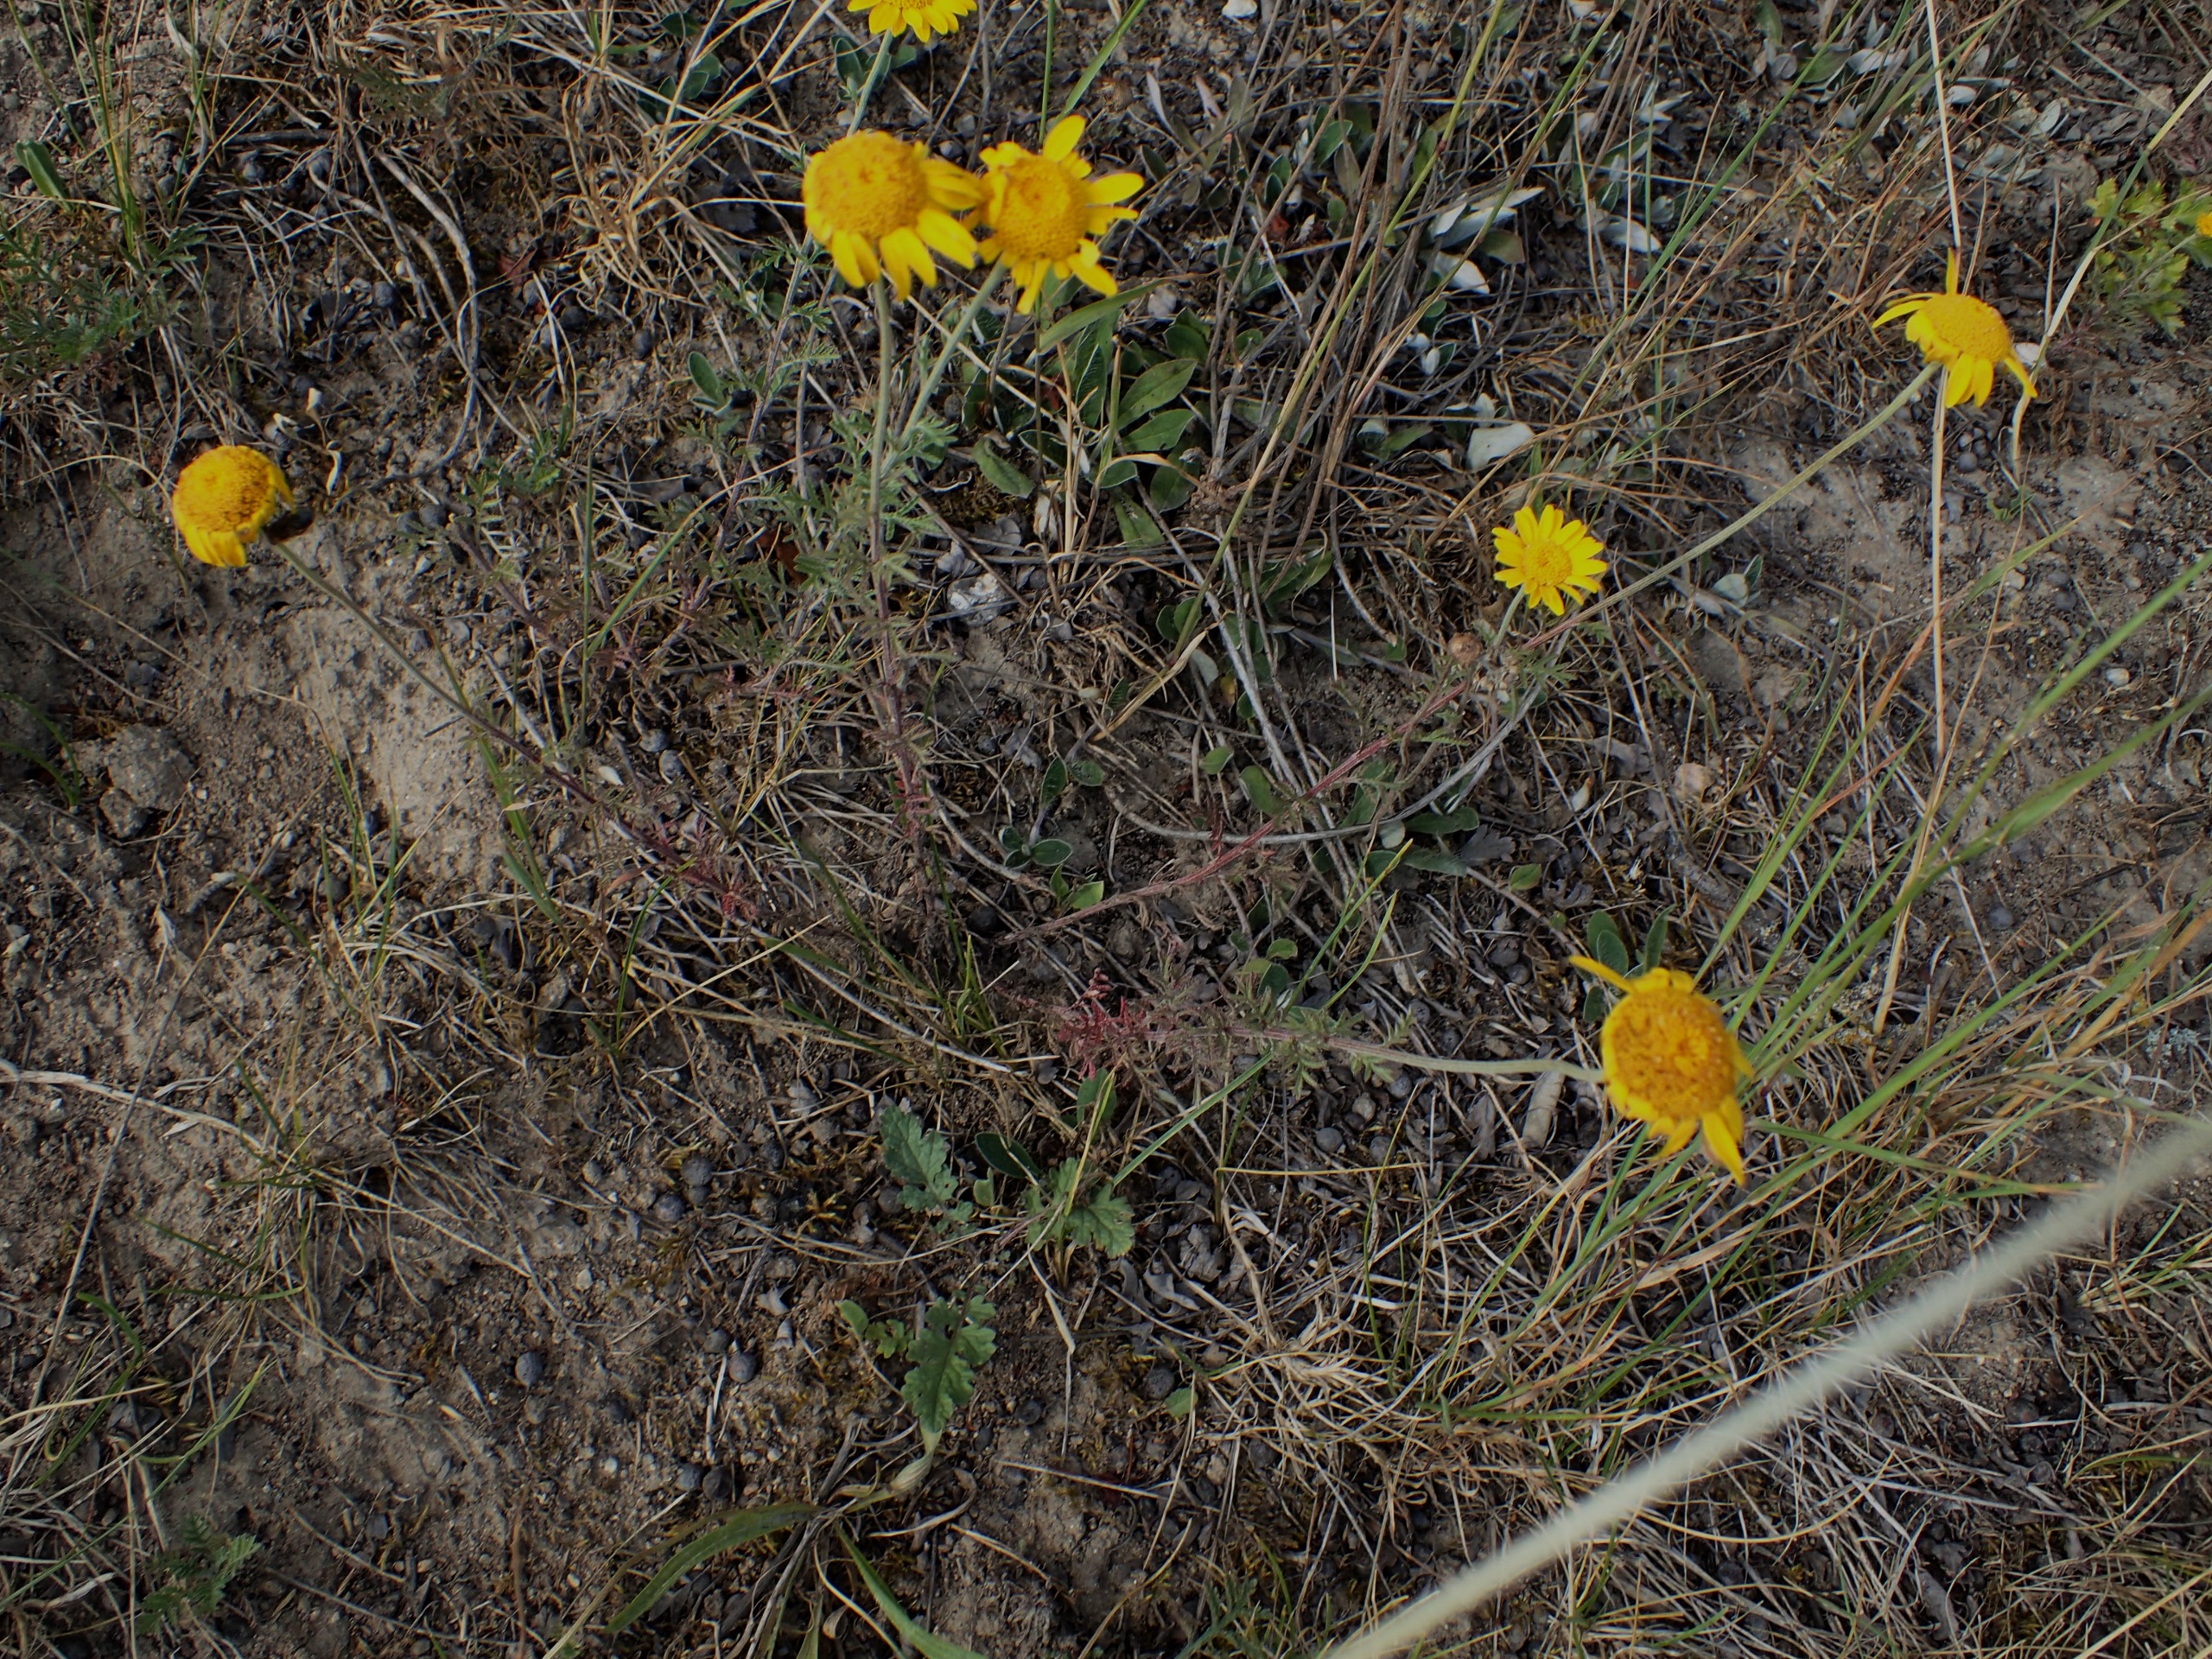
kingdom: Plantae
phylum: Tracheophyta
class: Magnoliopsida
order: Asterales
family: Asteraceae
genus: Cota
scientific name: Cota tinctoria
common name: Farve-gåseurt
